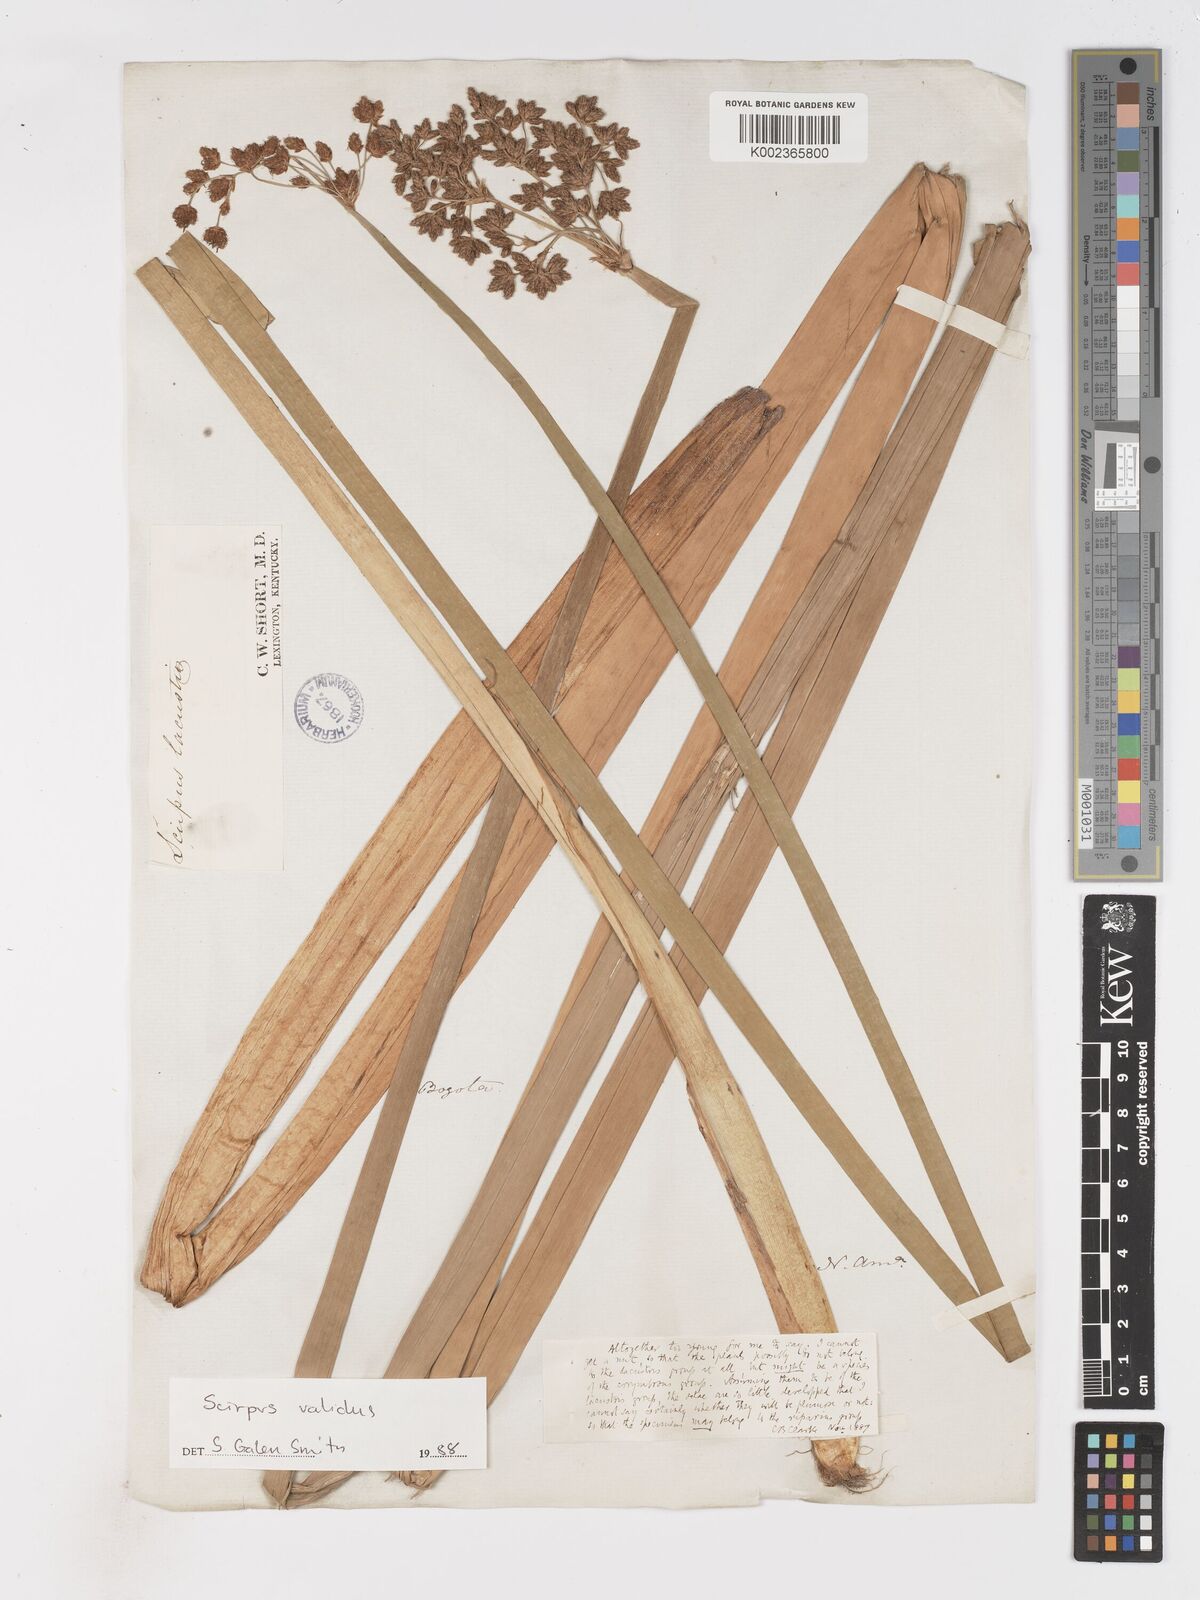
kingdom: Plantae
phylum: Tracheophyta
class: Liliopsida
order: Poales
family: Cyperaceae
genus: Schoenoplectus
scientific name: Schoenoplectus lacustris
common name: Common club-rush
